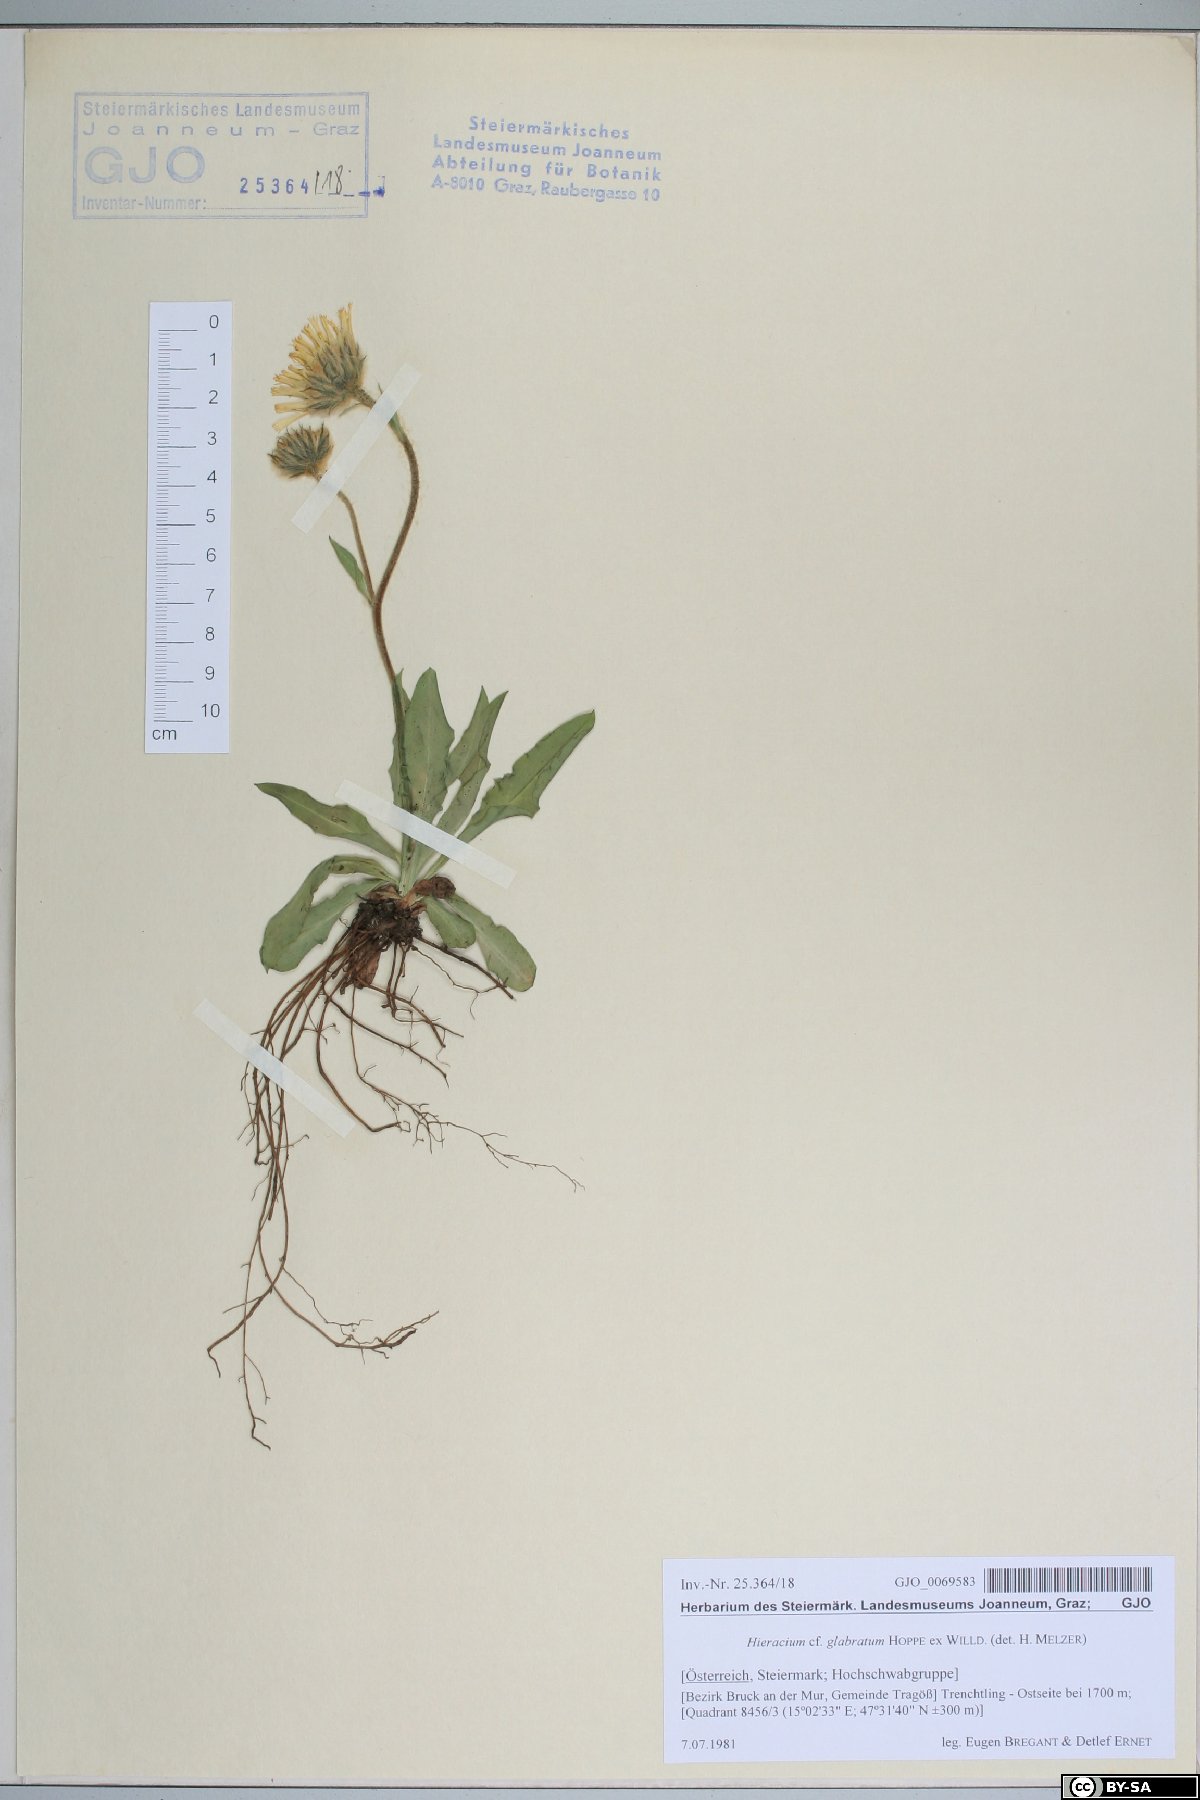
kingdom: Plantae
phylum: Tracheophyta
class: Magnoliopsida
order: Asterales
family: Asteraceae
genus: Hieracium
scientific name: Hieracium glabratum
